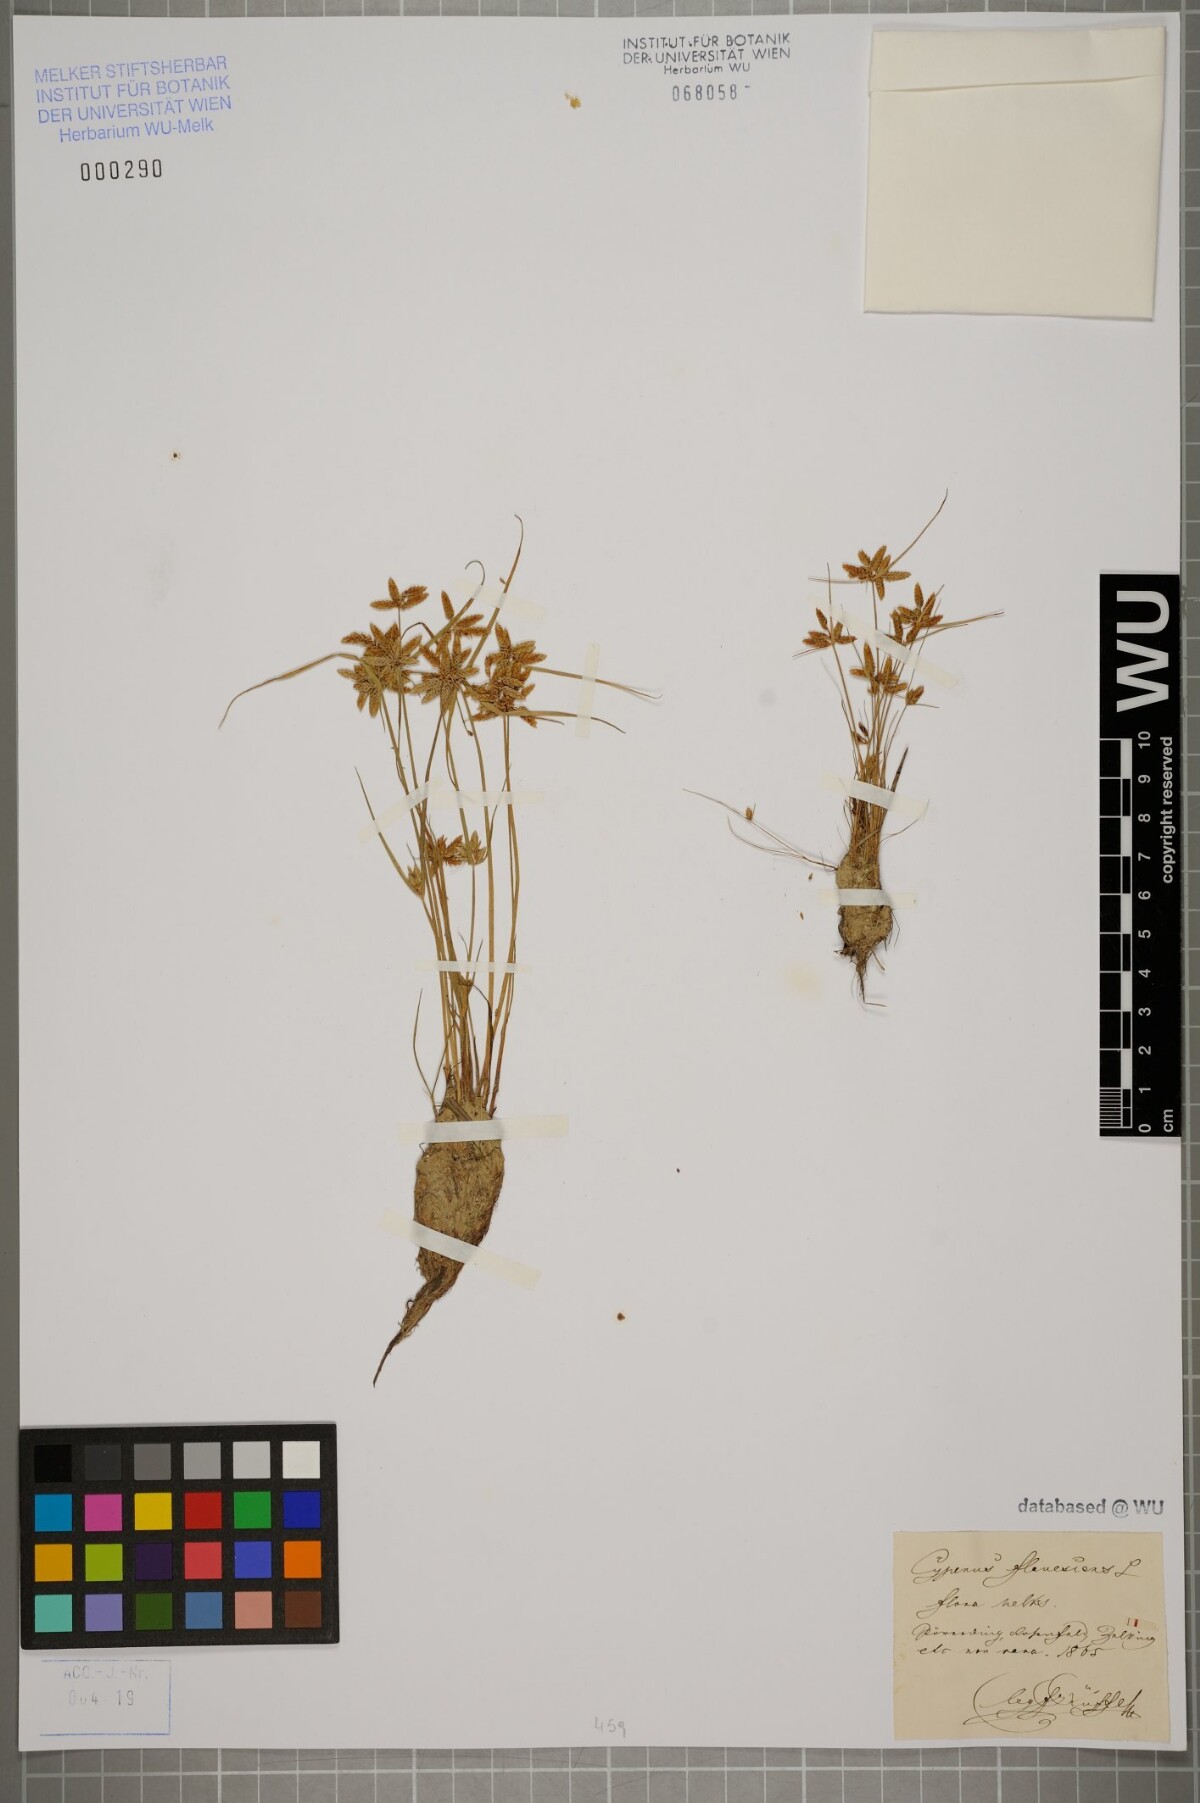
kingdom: Plantae
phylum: Tracheophyta
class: Liliopsida
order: Poales
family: Cyperaceae
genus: Cyperus
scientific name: Cyperus flavescens
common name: Yellow galingale
